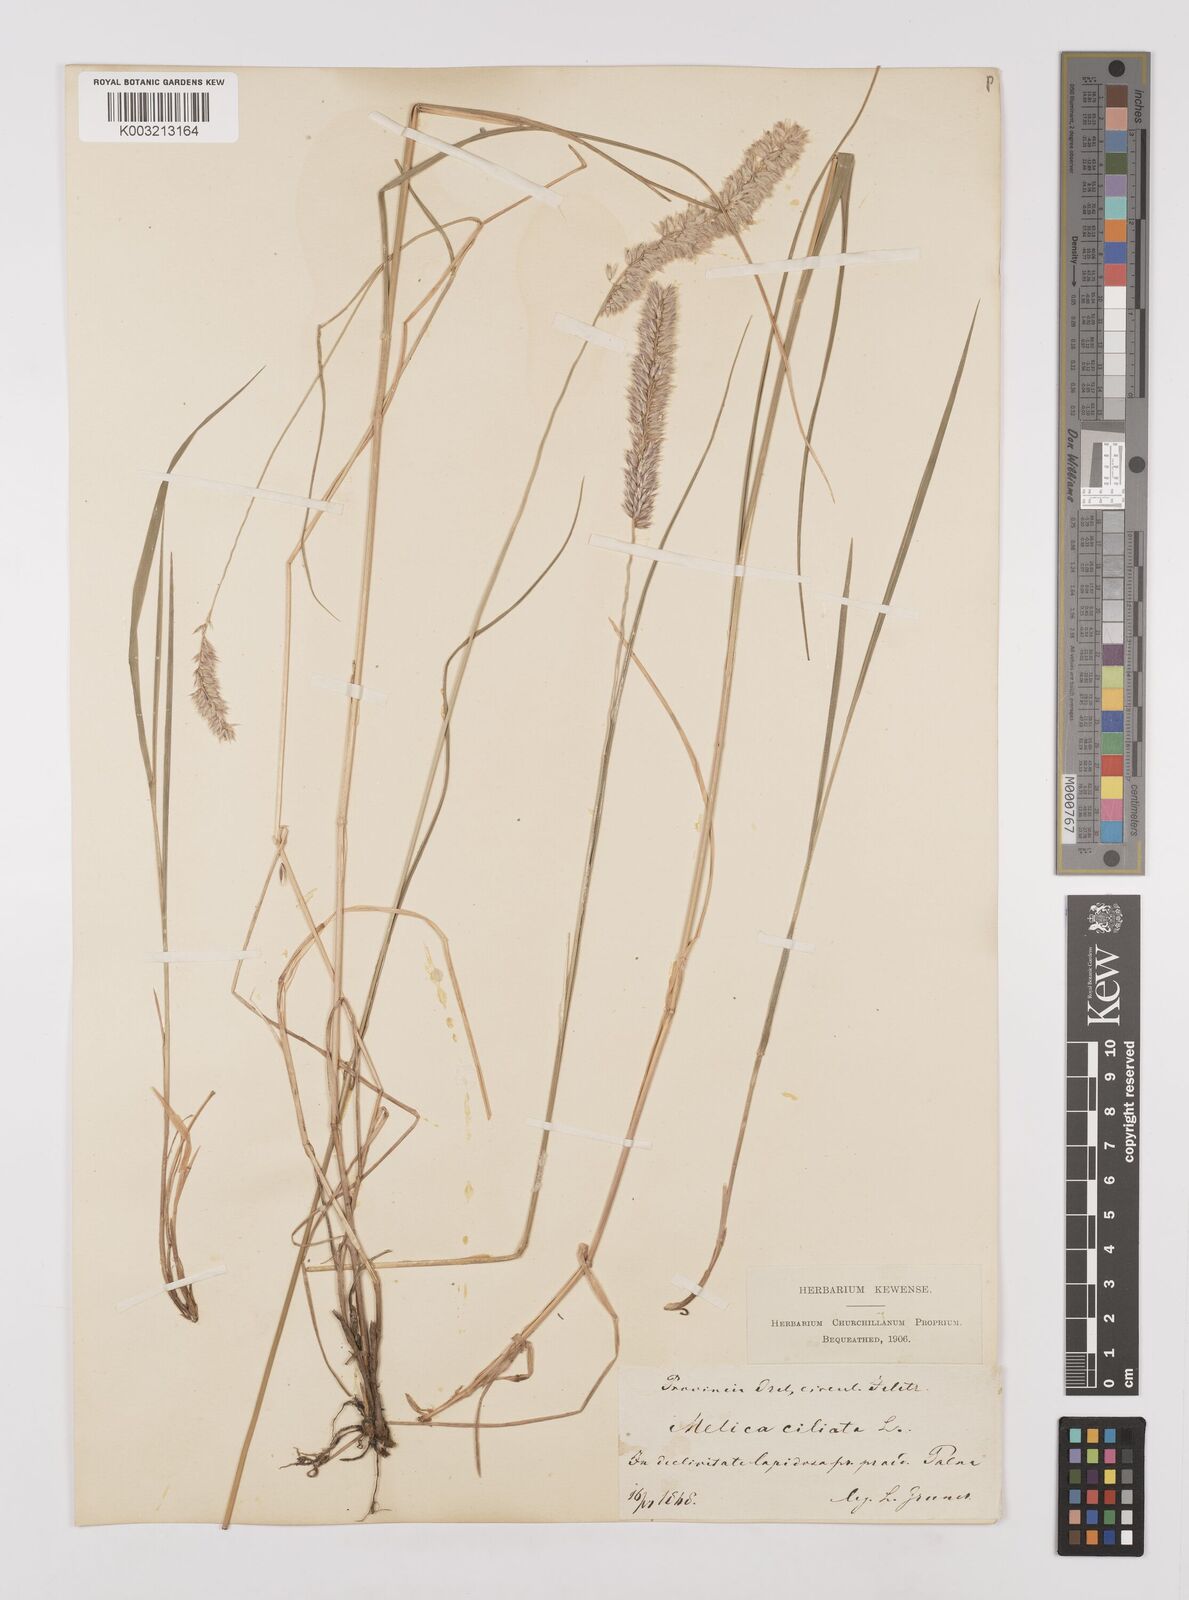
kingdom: Plantae
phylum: Tracheophyta
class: Liliopsida
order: Poales
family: Poaceae
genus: Melica
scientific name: Melica ciliata
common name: Hairy melicgrass
